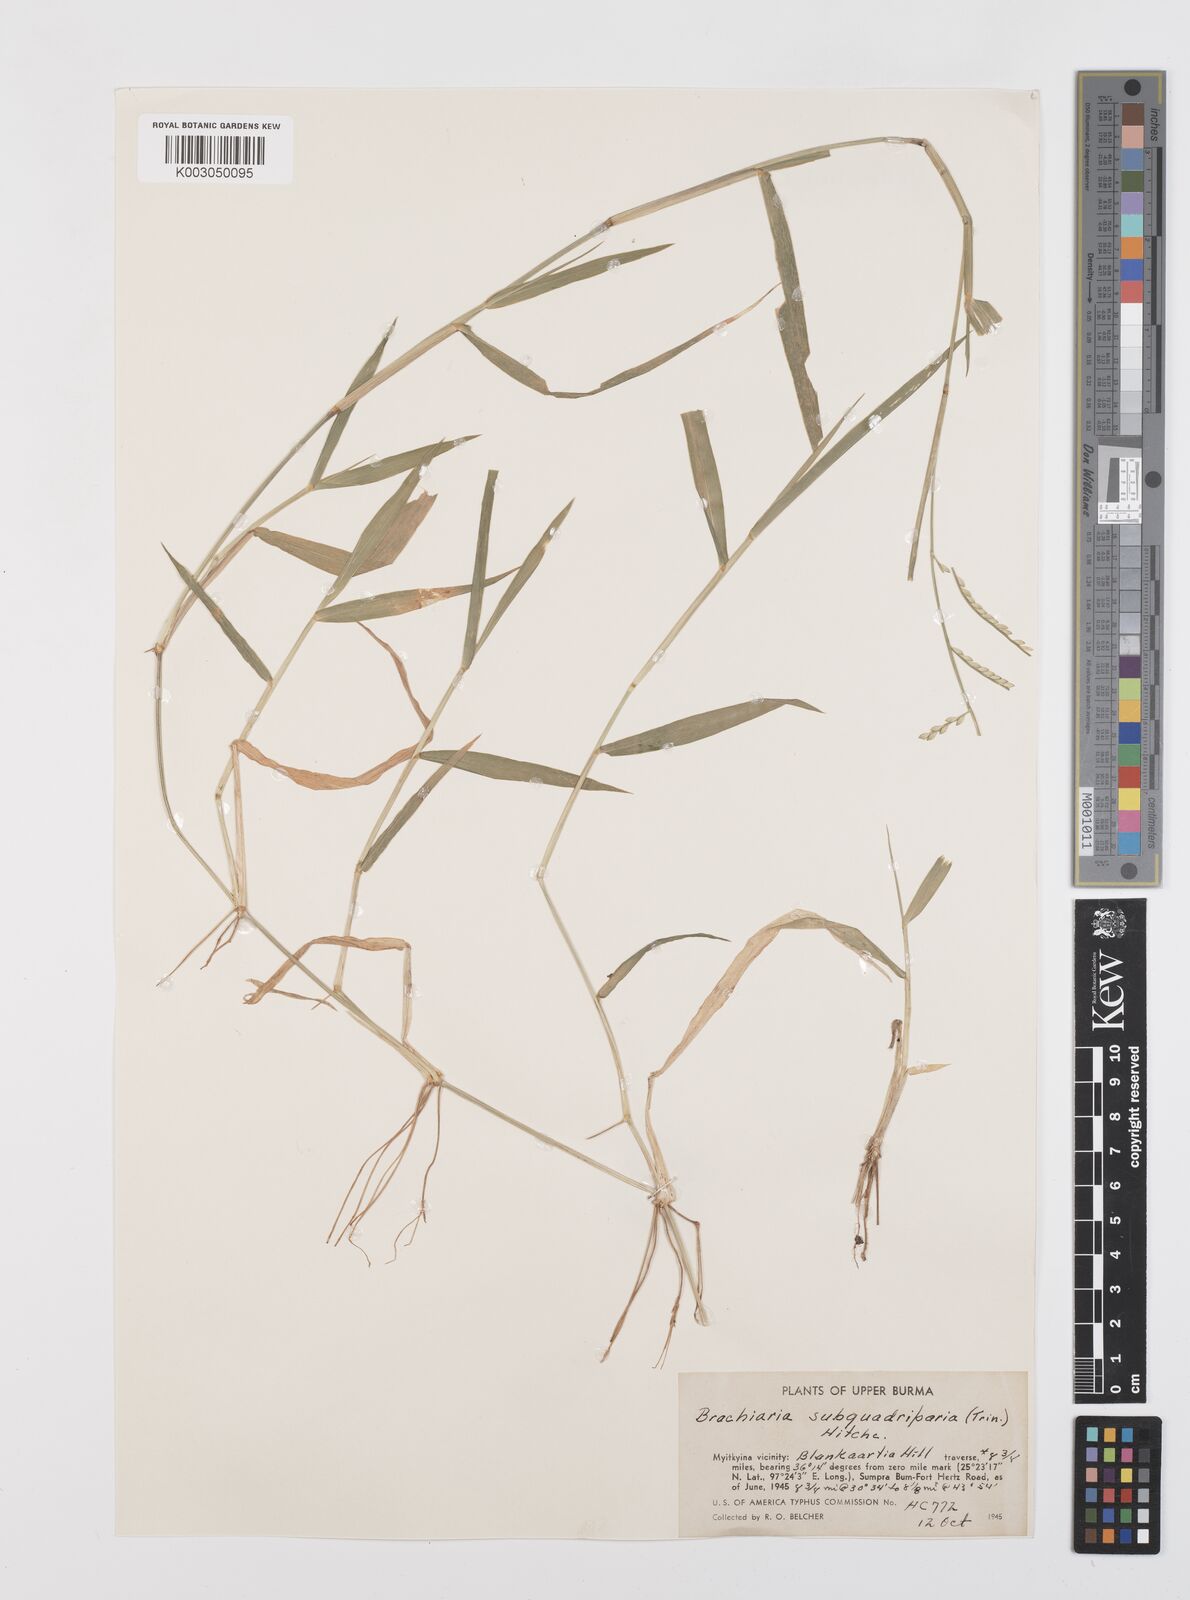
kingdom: Plantae
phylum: Tracheophyta
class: Liliopsida
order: Poales
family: Poaceae
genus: Urochloa
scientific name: Urochloa subquadripara
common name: Armgrass millet
